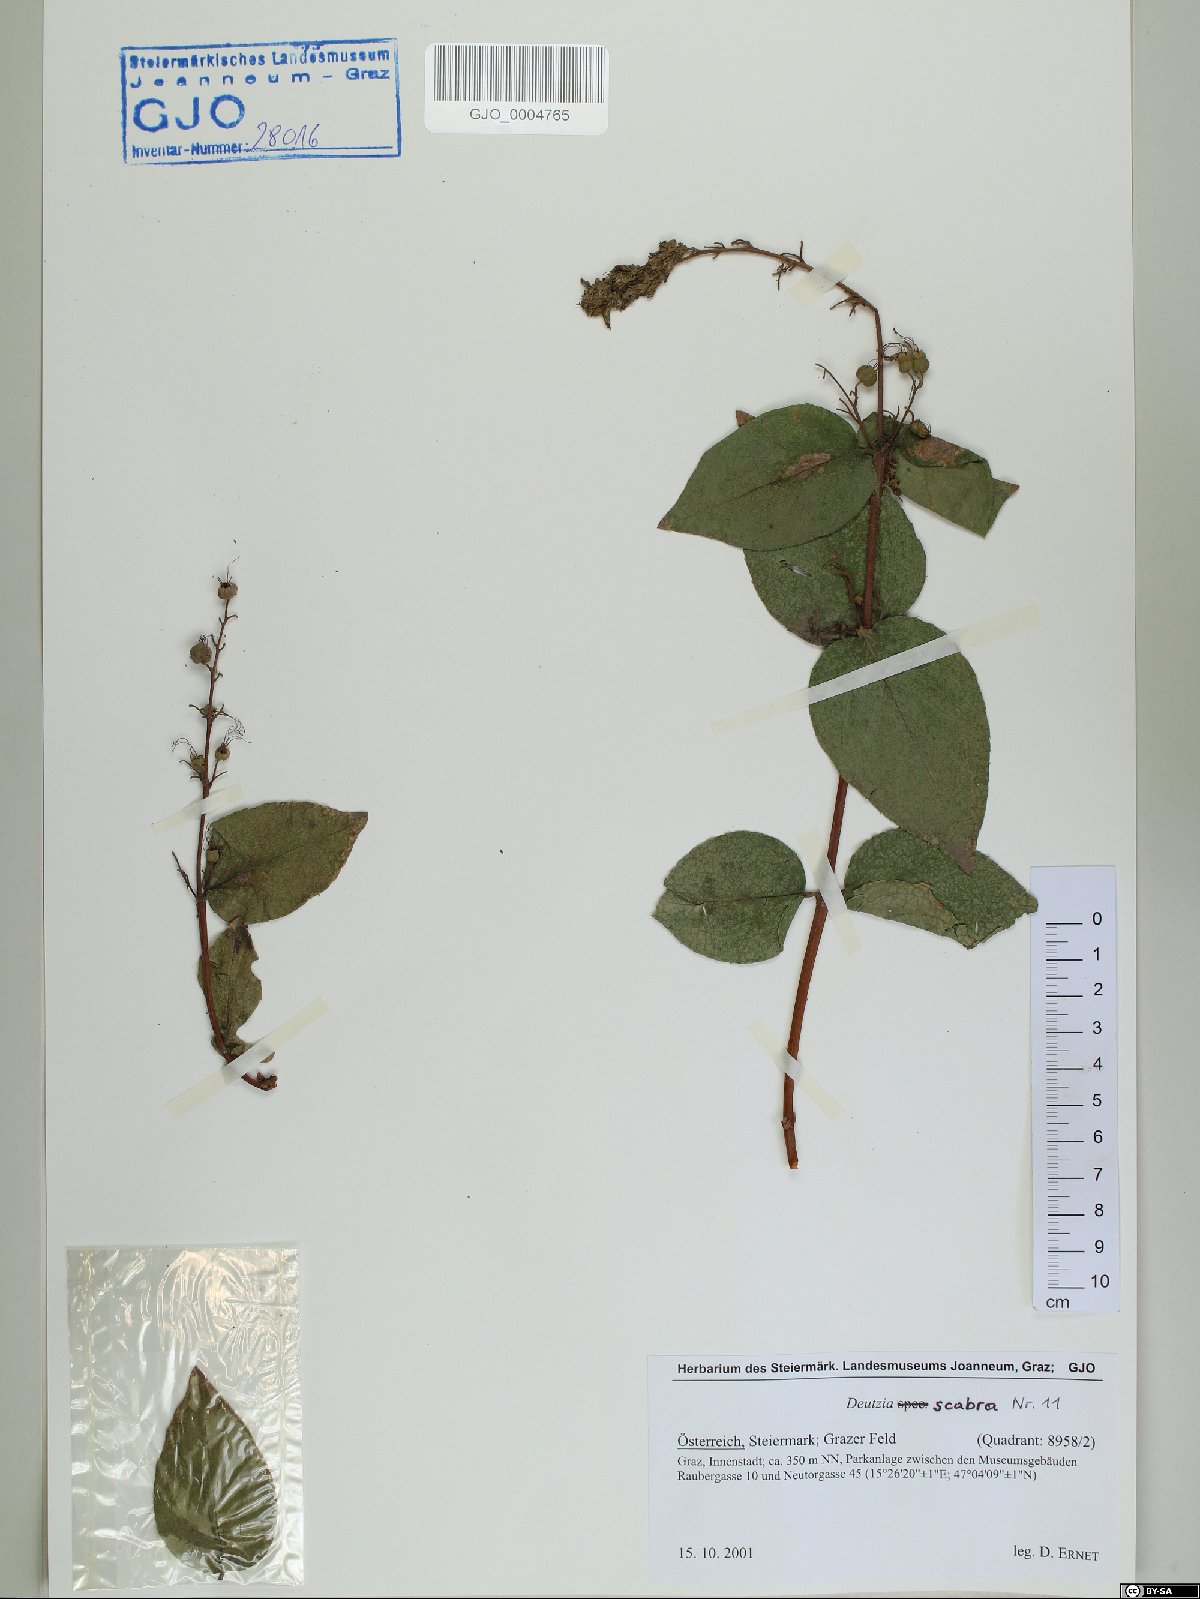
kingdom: Plantae
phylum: Tracheophyta
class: Magnoliopsida
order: Cornales
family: Hydrangeaceae
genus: Deutzia
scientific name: Deutzia scabra
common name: Deutzia
